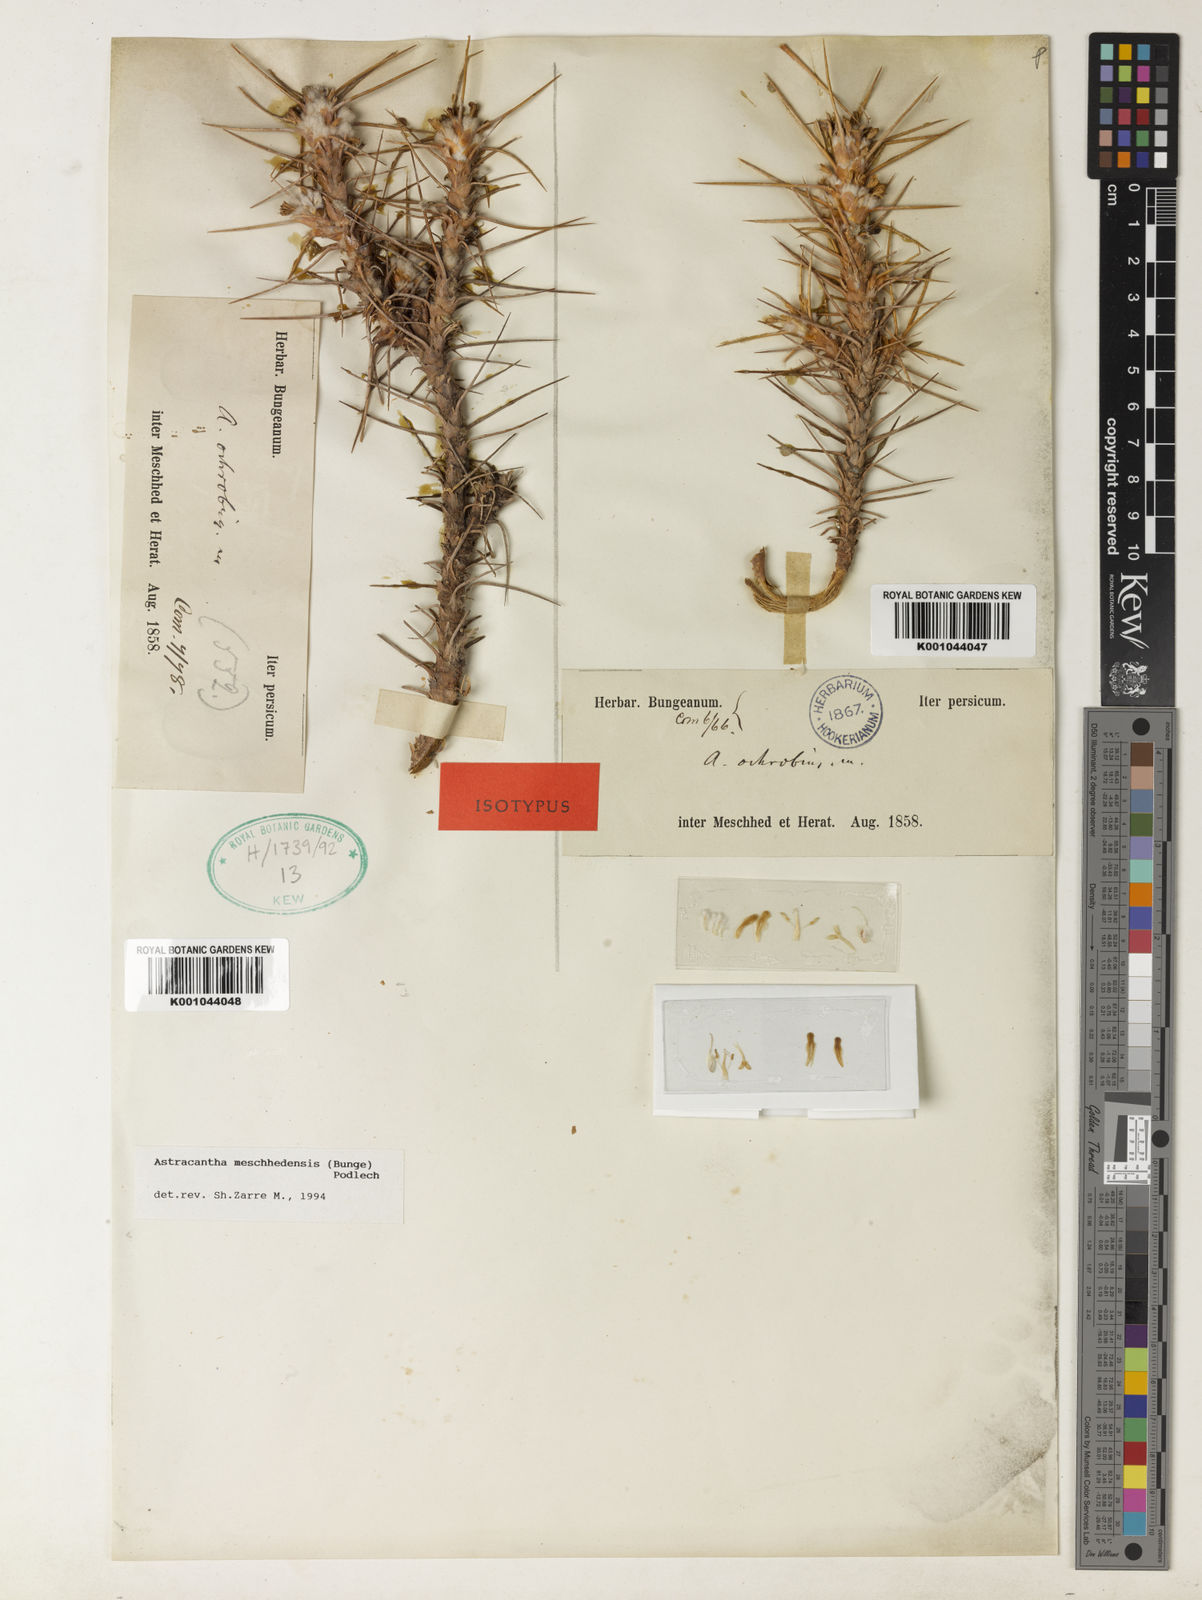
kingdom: Plantae
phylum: Tracheophyta
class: Magnoliopsida
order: Fabales
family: Fabaceae
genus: Astragalus
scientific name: Astragalus verus
